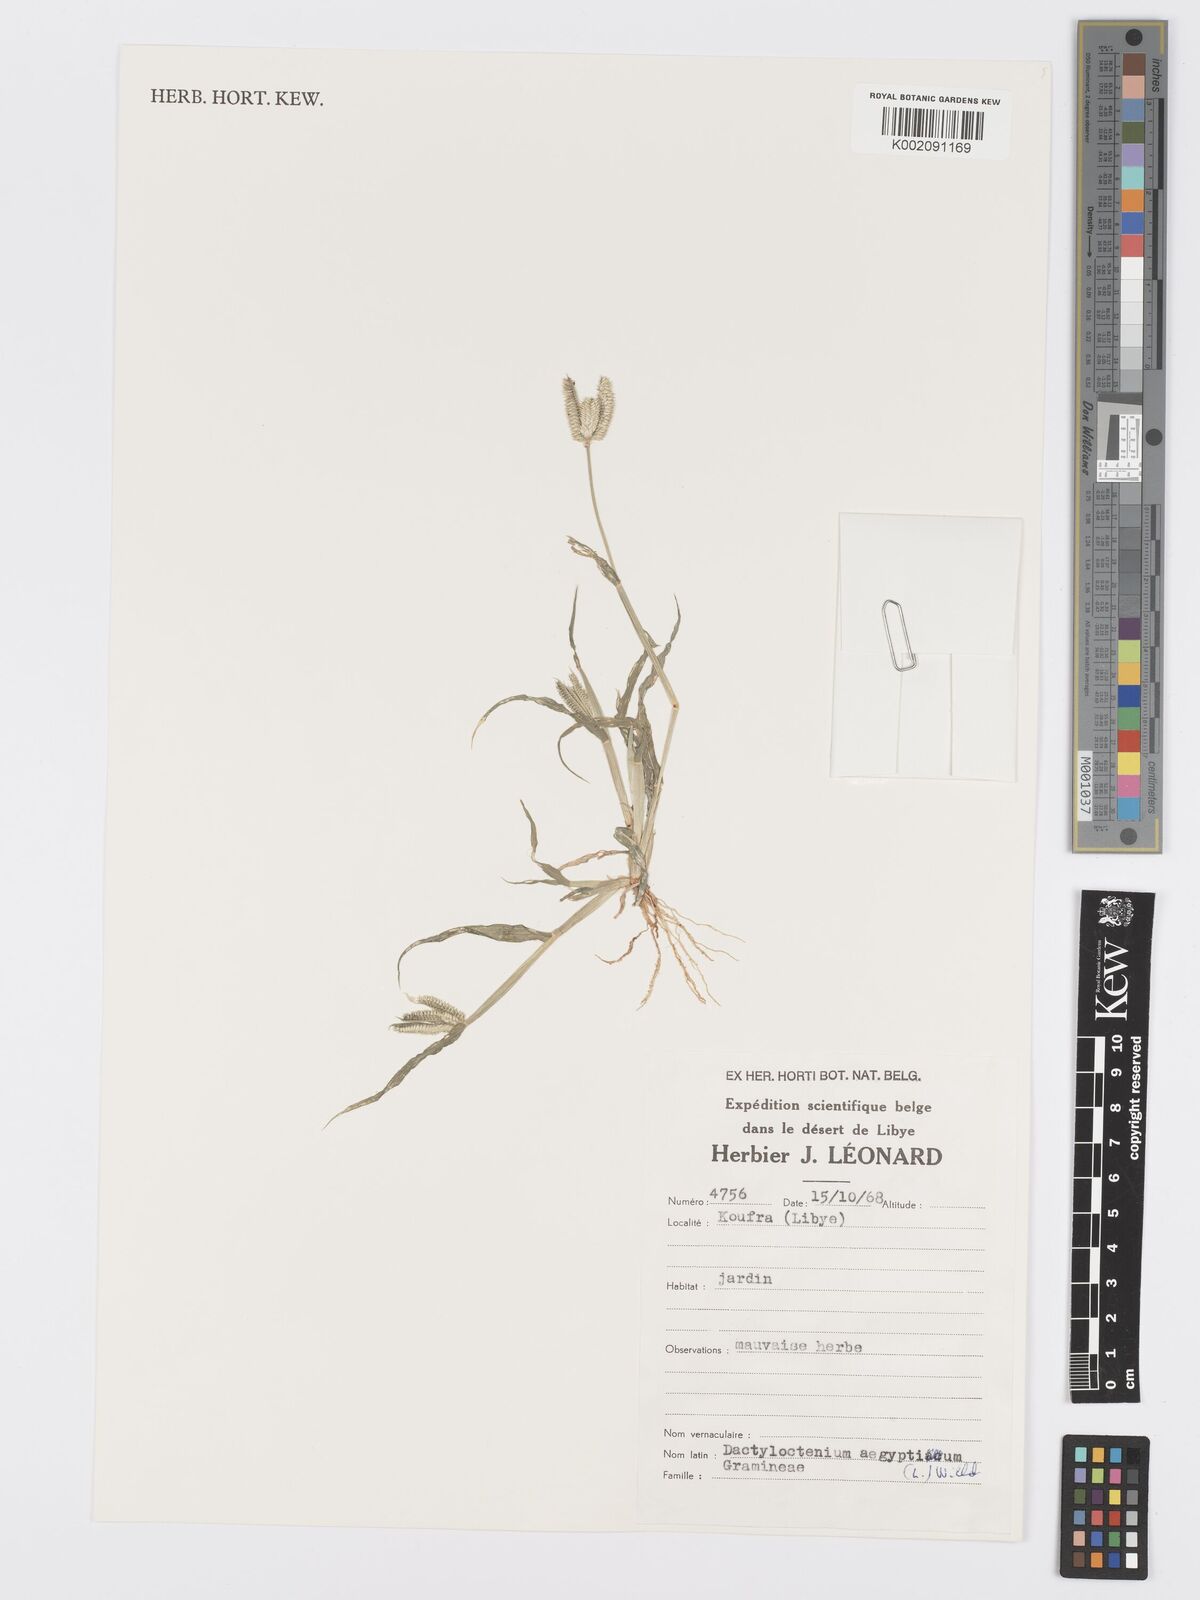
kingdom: Plantae
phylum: Tracheophyta
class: Liliopsida
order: Poales
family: Poaceae
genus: Dactyloctenium
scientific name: Dactyloctenium aegyptium
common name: Egyptian grass
